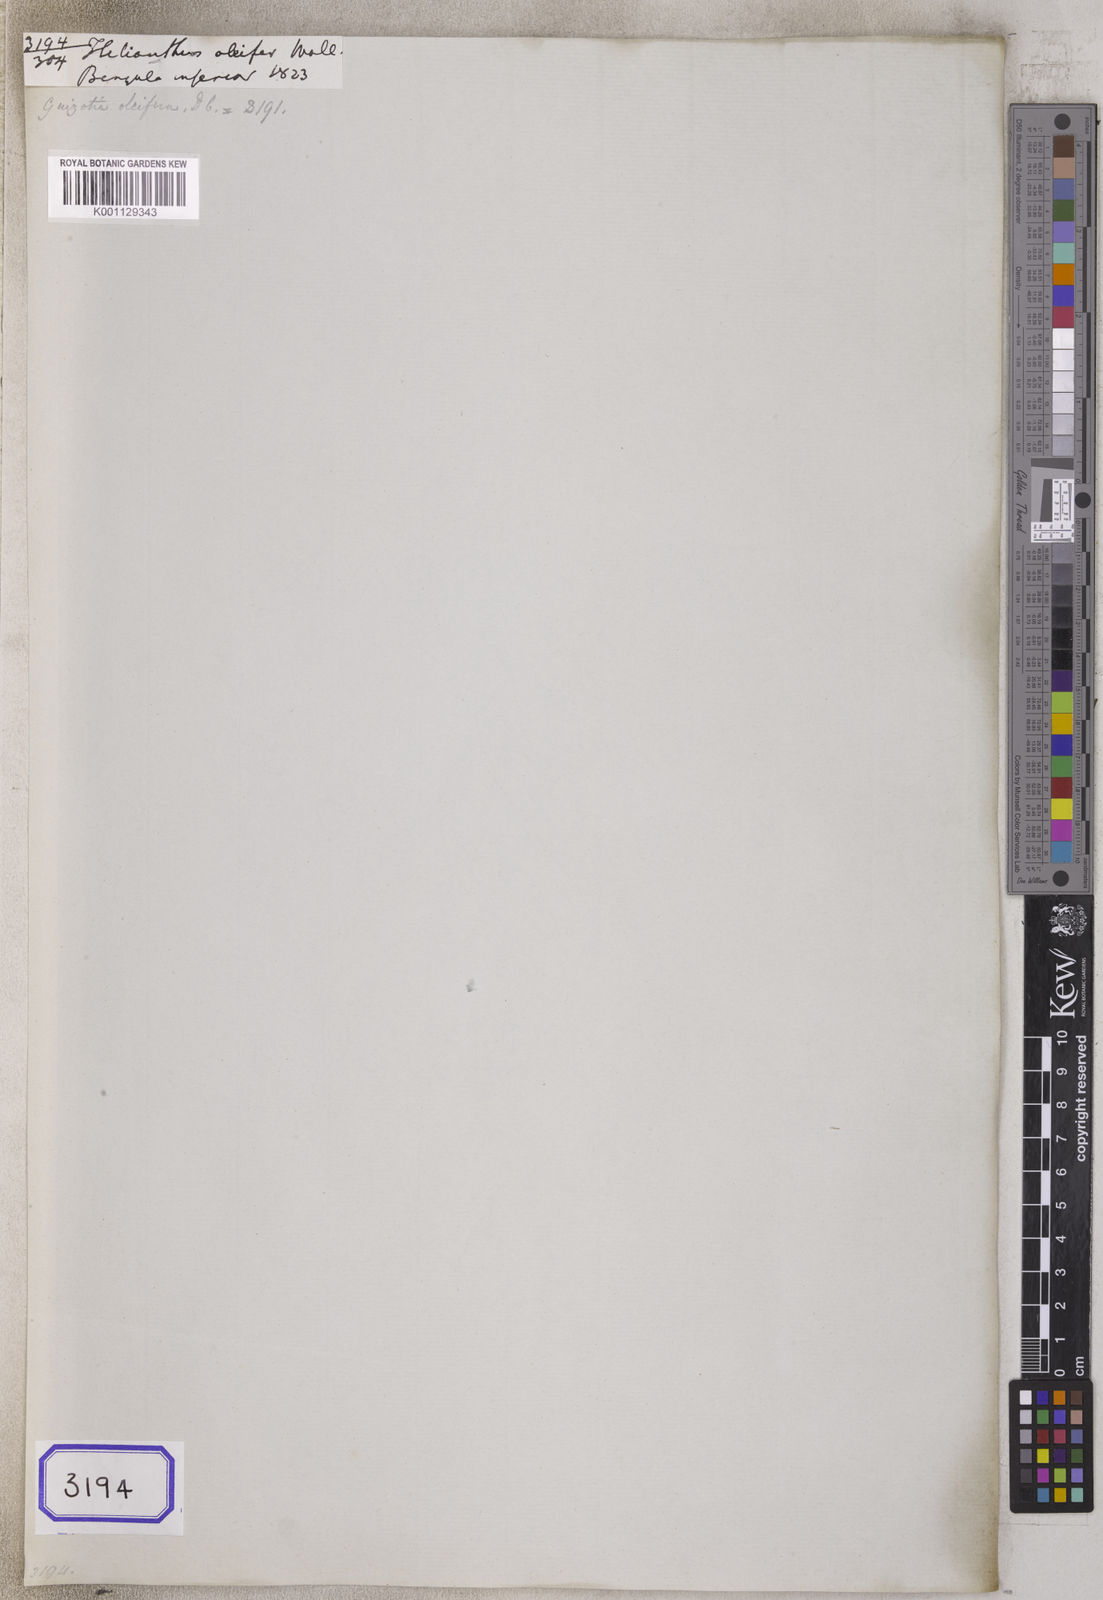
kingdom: Plantae
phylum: Tracheophyta
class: Magnoliopsida
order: Asterales
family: Asteraceae
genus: Guizotia
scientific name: Guizotia abyssinica
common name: Niger
